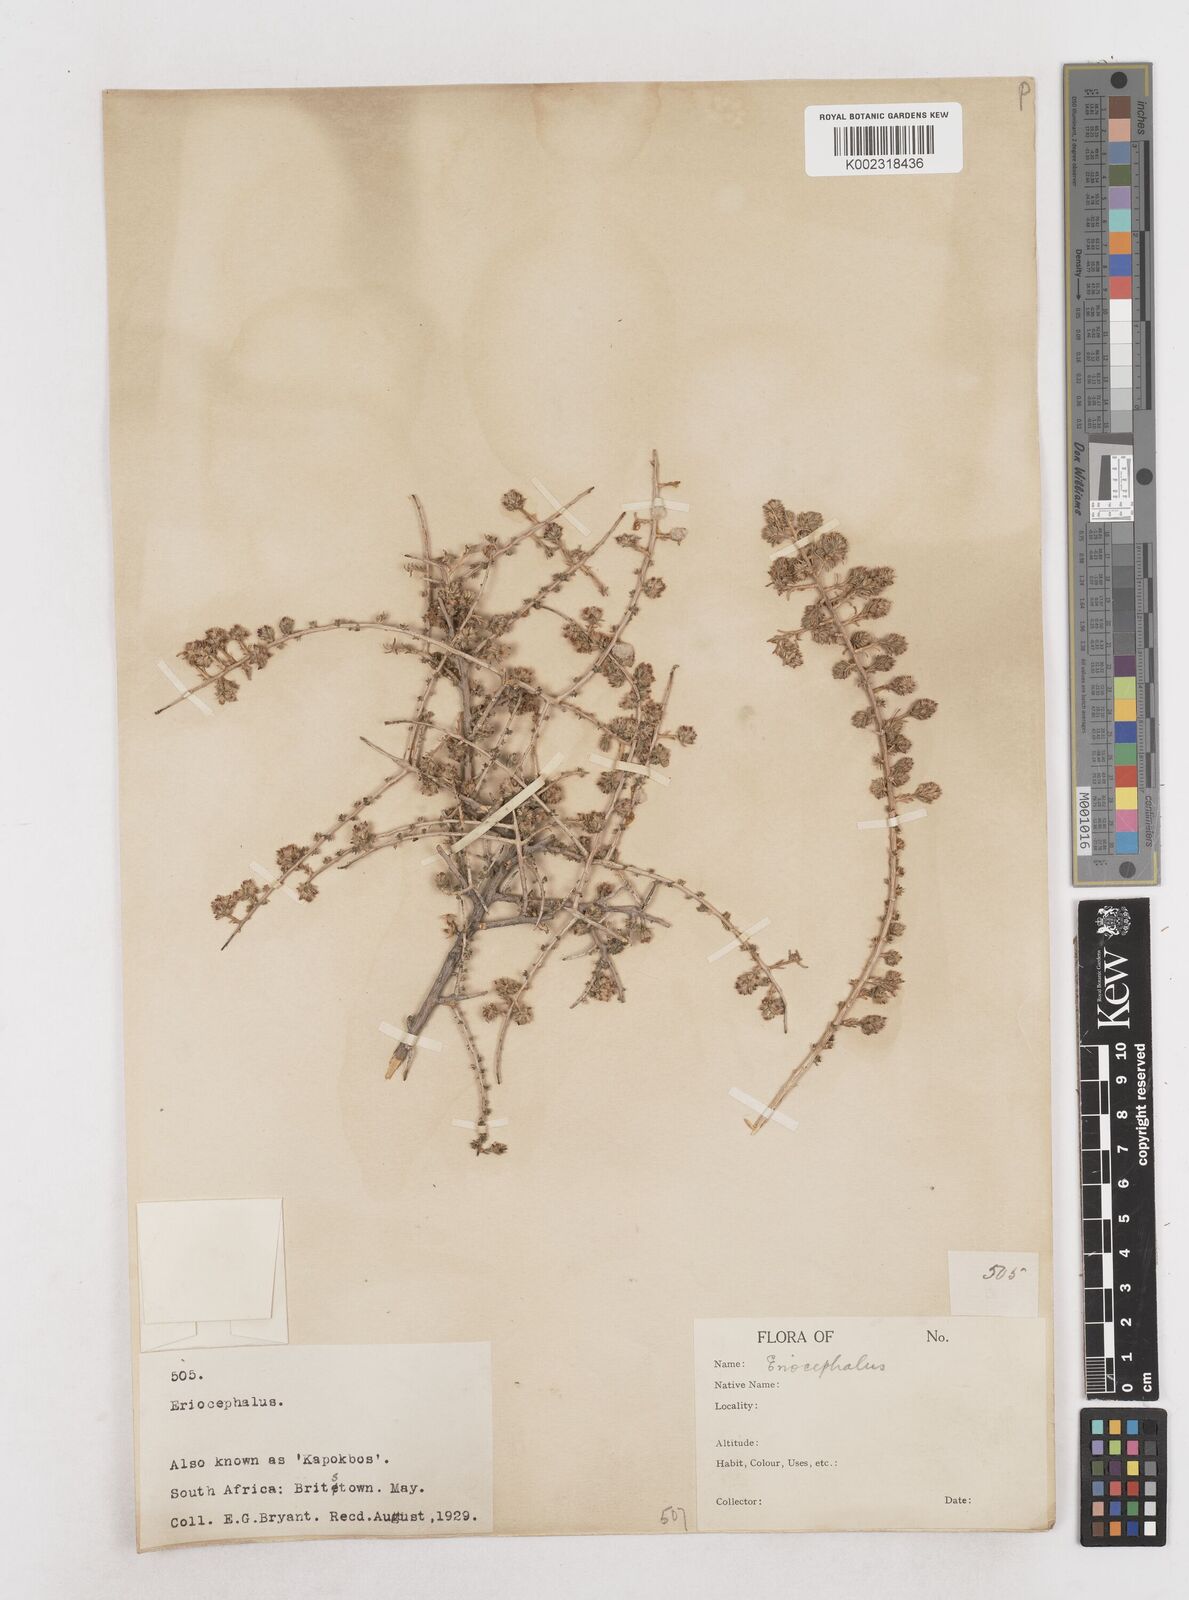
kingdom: Plantae
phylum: Tracheophyta
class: Magnoliopsida
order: Asterales
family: Asteraceae
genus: Eriocephalus
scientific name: Eriocephalus
